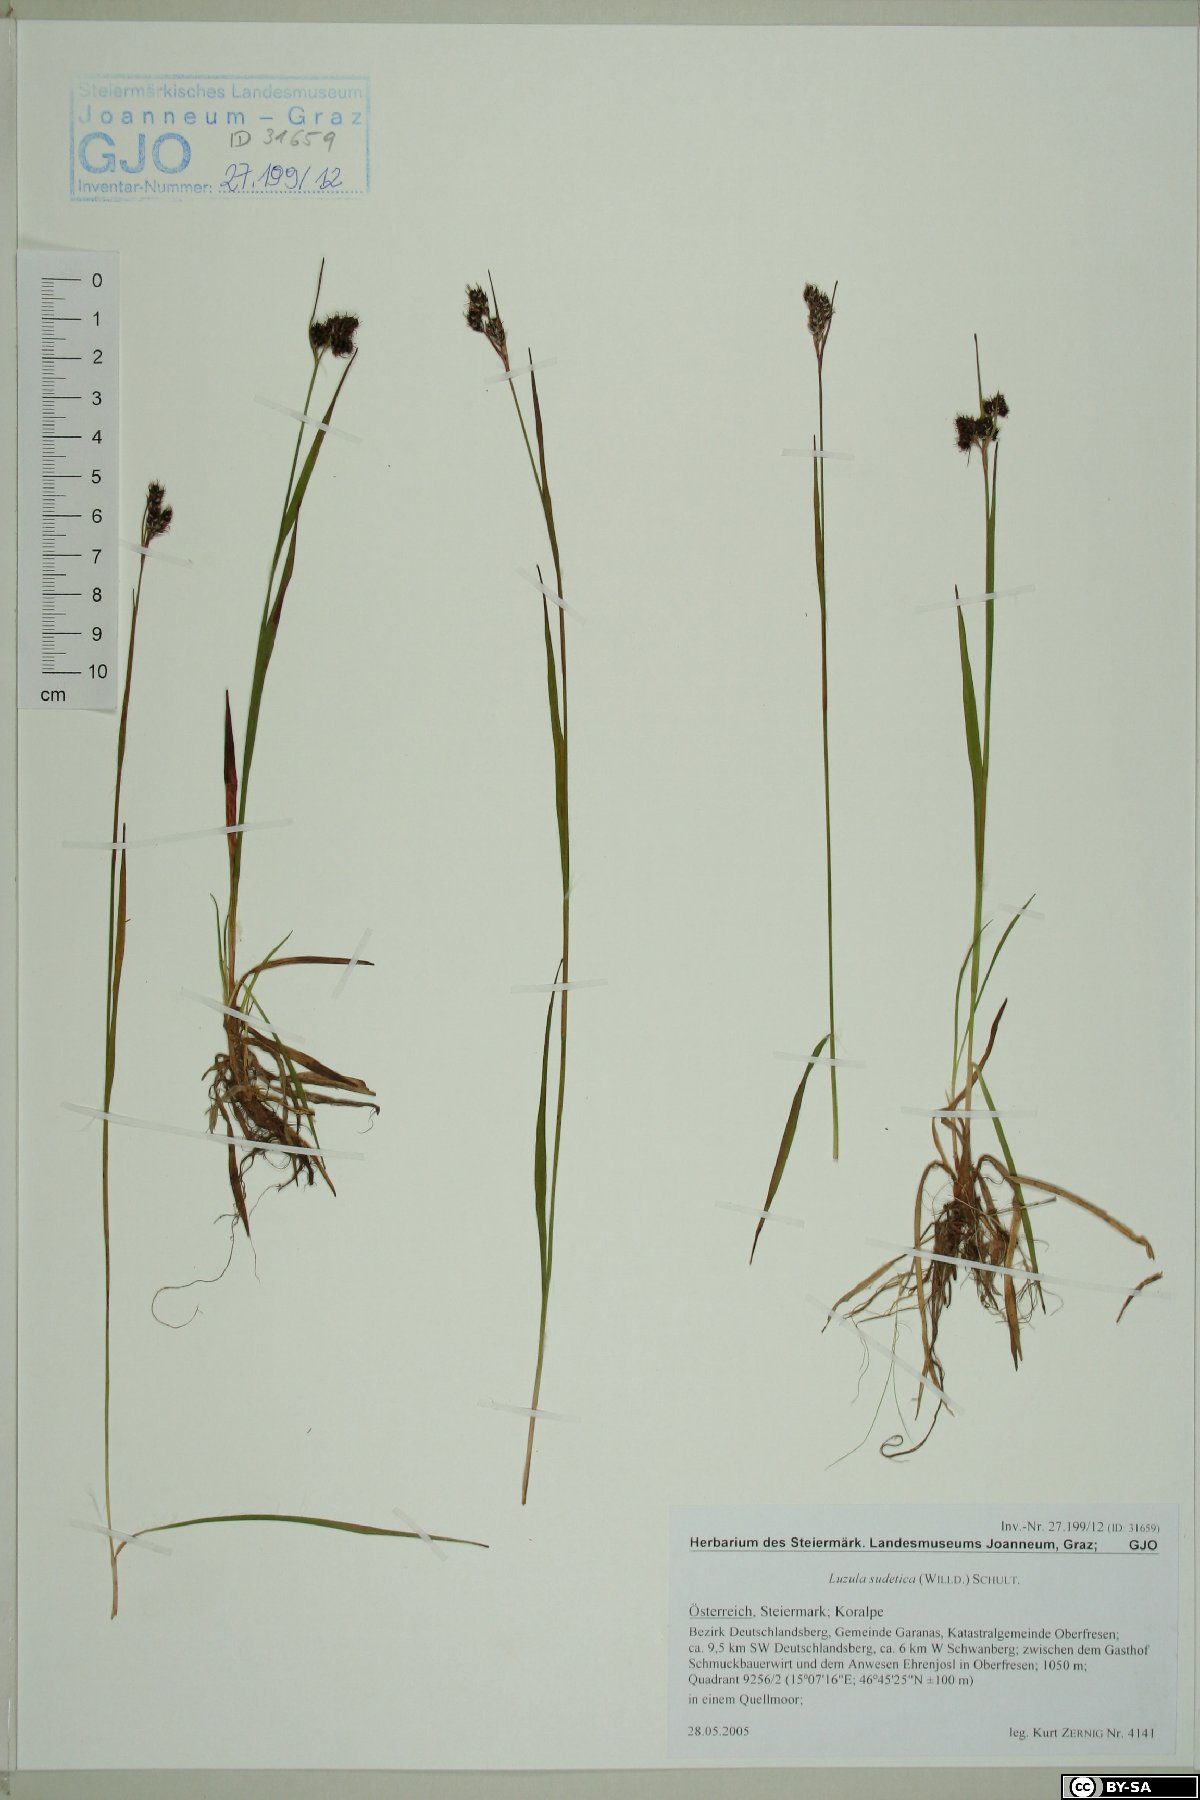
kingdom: Plantae
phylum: Tracheophyta
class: Liliopsida
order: Poales
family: Juncaceae
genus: Luzula
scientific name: Luzula sudetica
